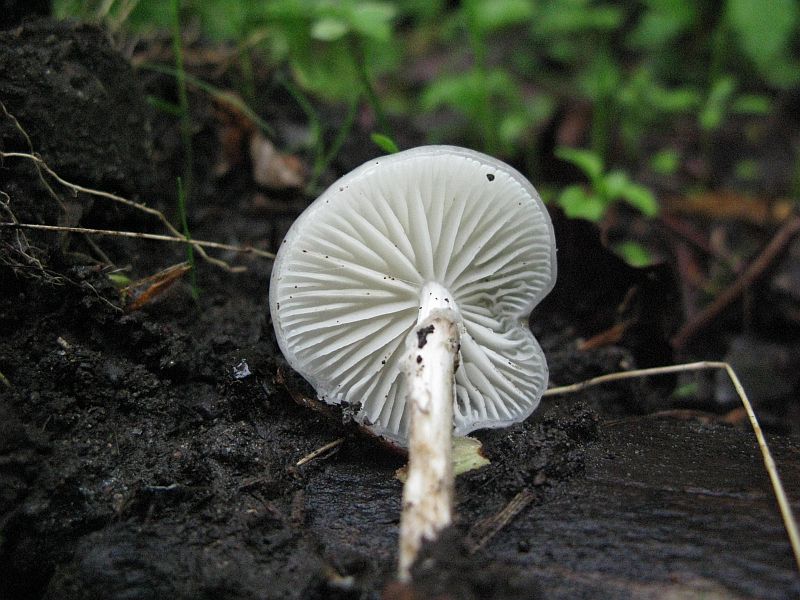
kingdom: Fungi
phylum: Basidiomycota
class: Agaricomycetes
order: Agaricales
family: Hygrophoraceae
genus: Hygrophorus
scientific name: Hygrophorus eburneus
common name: elfenbens-sneglehat
